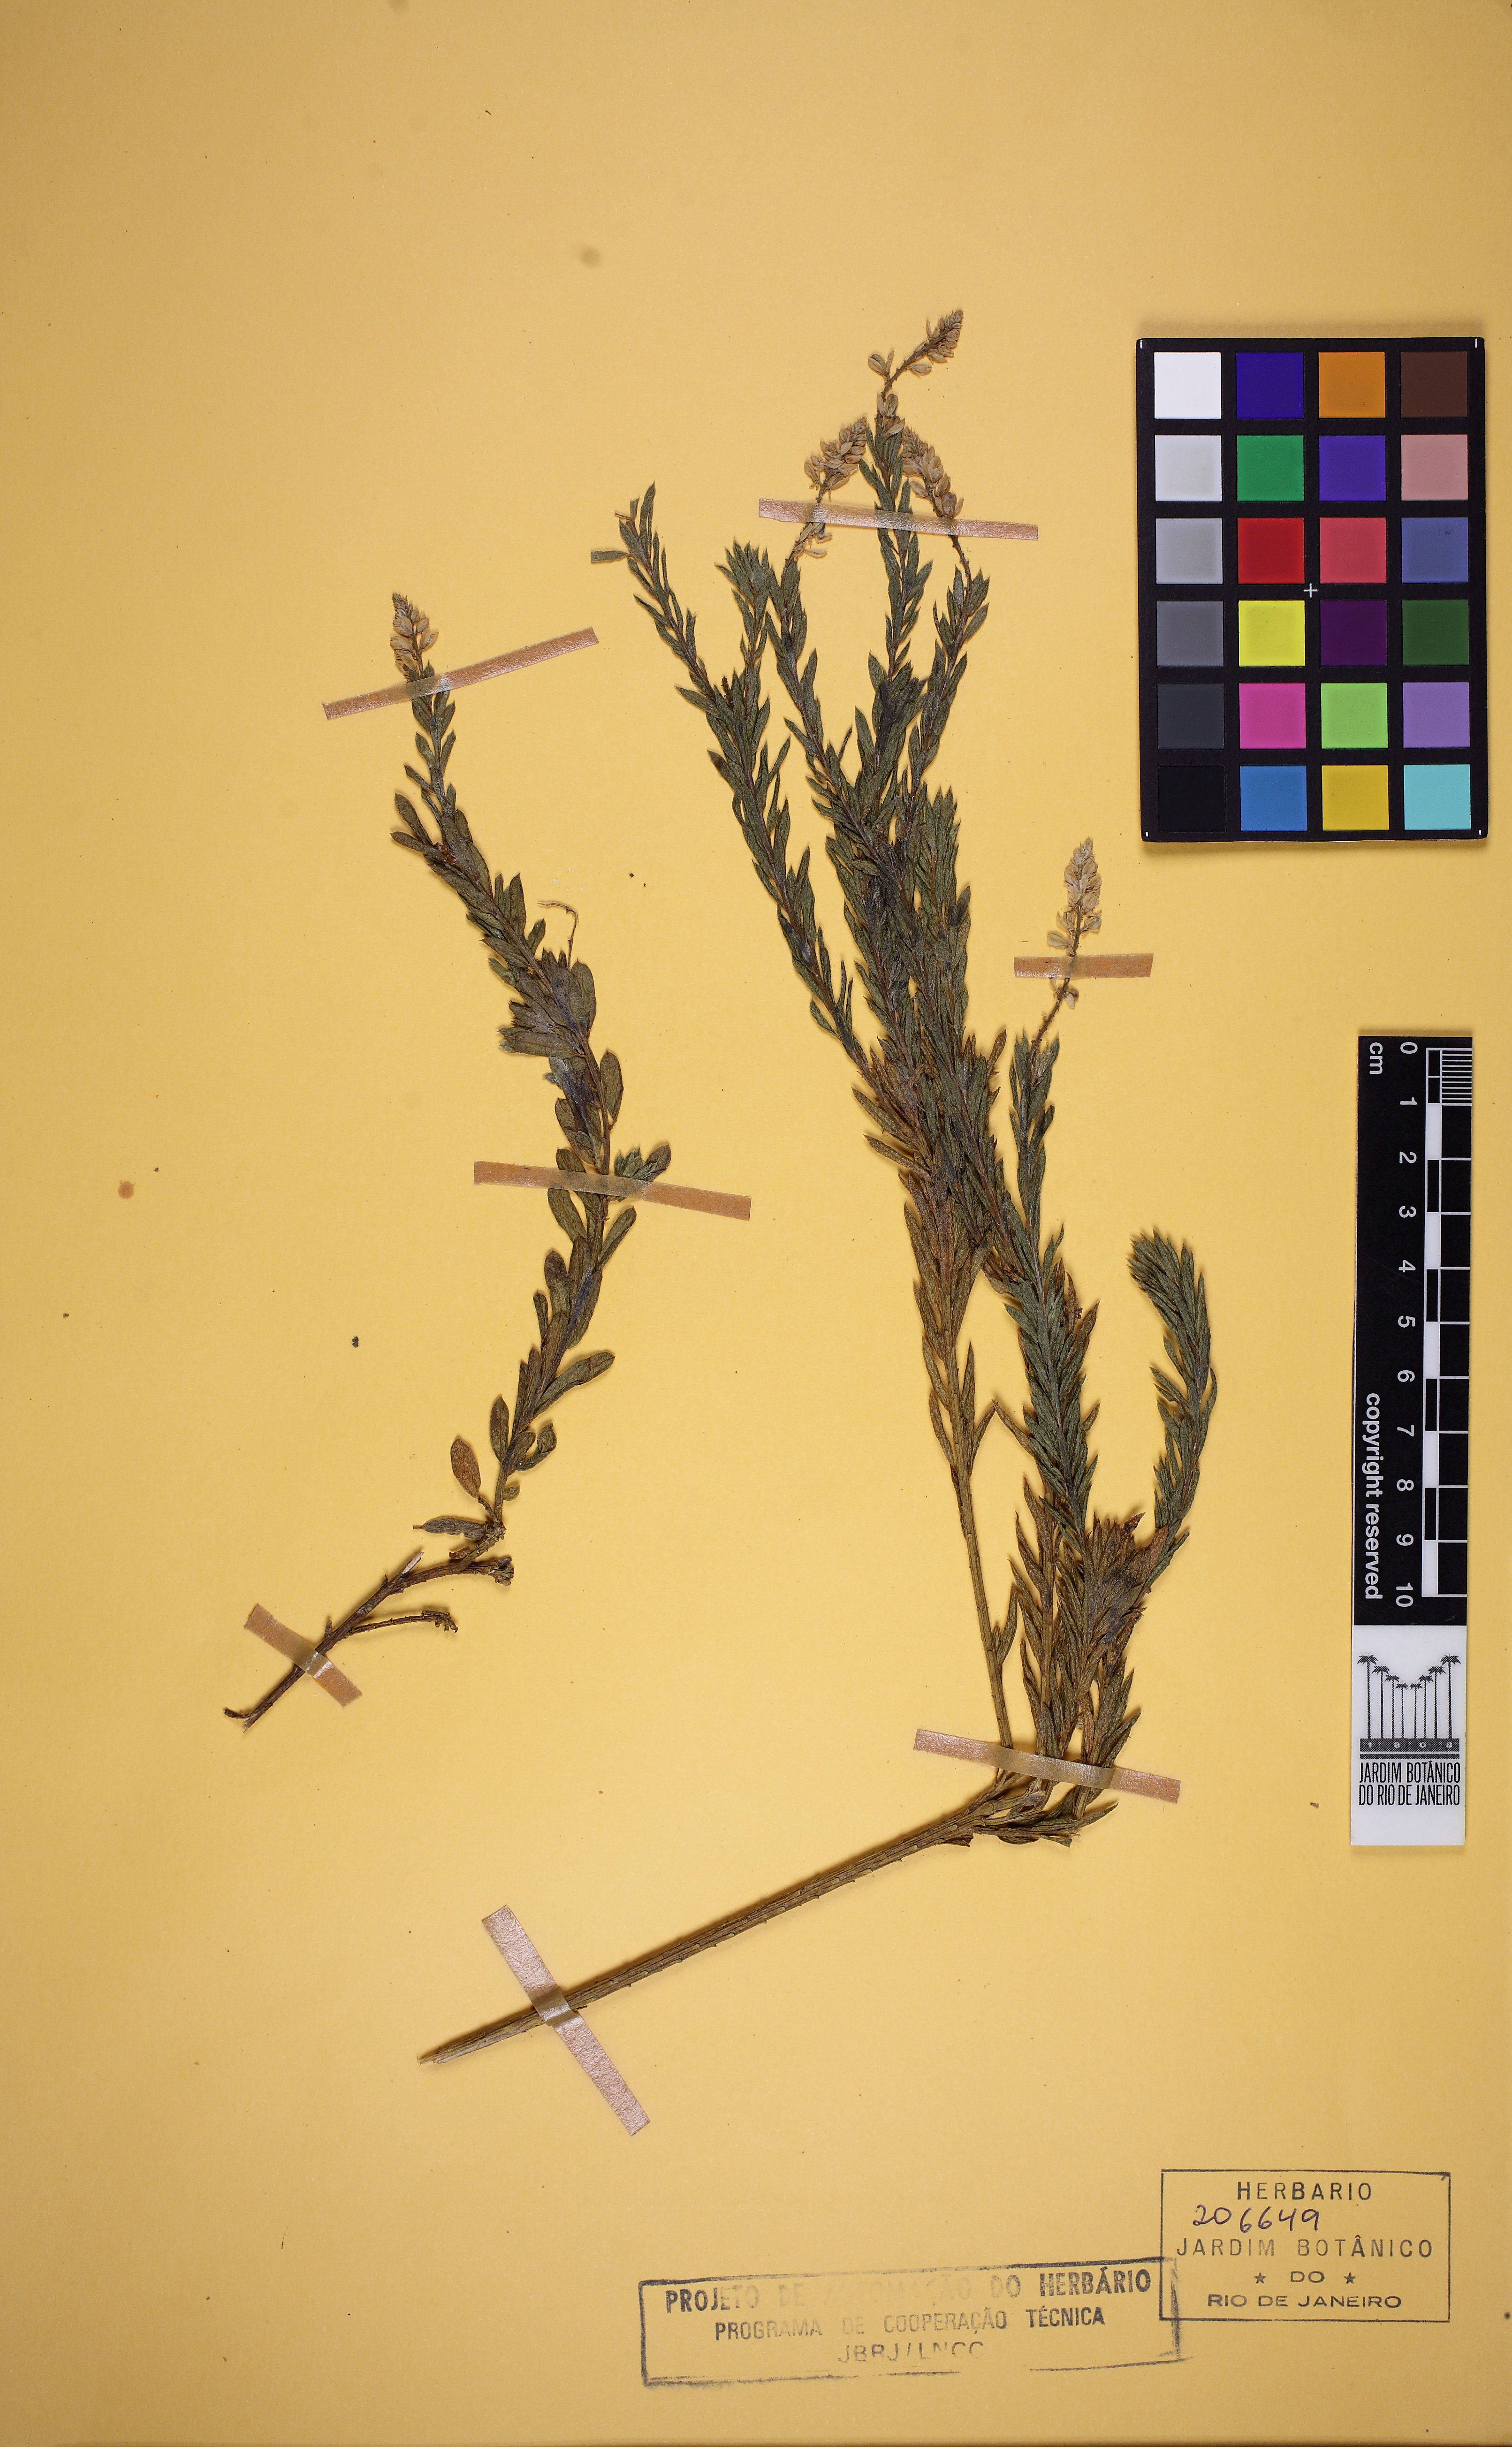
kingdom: Plantae
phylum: Tracheophyta
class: Magnoliopsida
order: Fabales
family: Polygalaceae
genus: Polygala
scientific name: Polygala tuberculata
